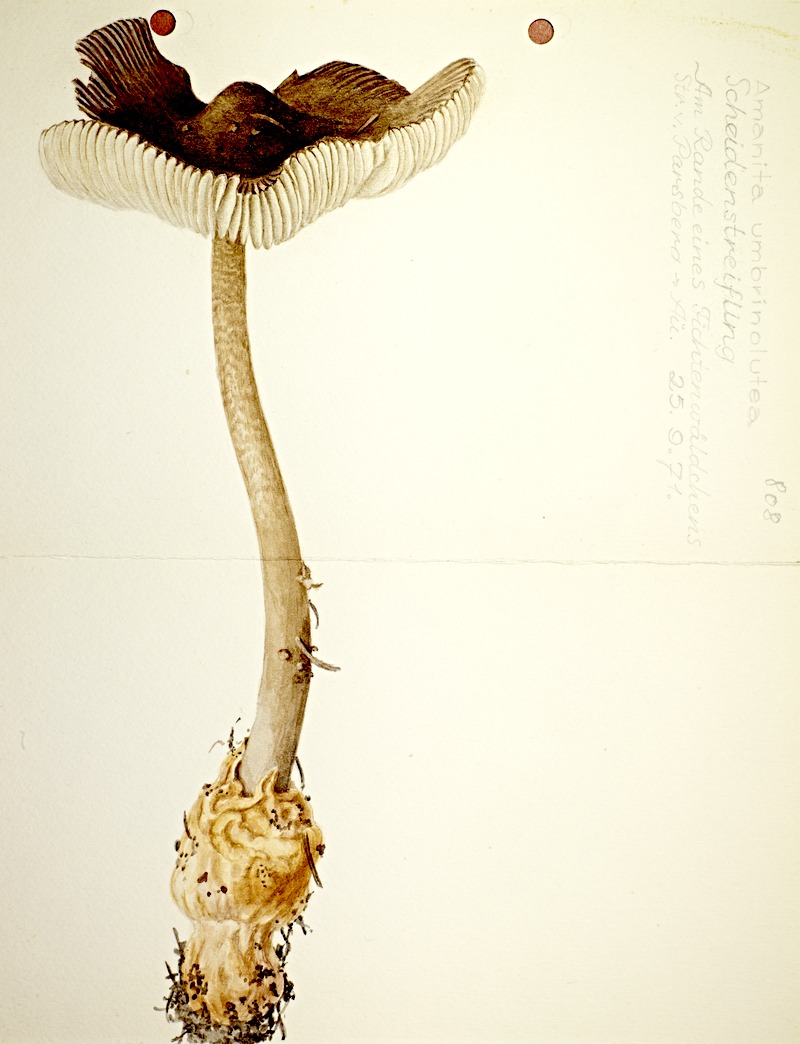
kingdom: Fungi
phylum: Basidiomycota
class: Agaricomycetes
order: Agaricales
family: Amanitaceae
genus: Amanita
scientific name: Amanita battarrae
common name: Banded amanita
